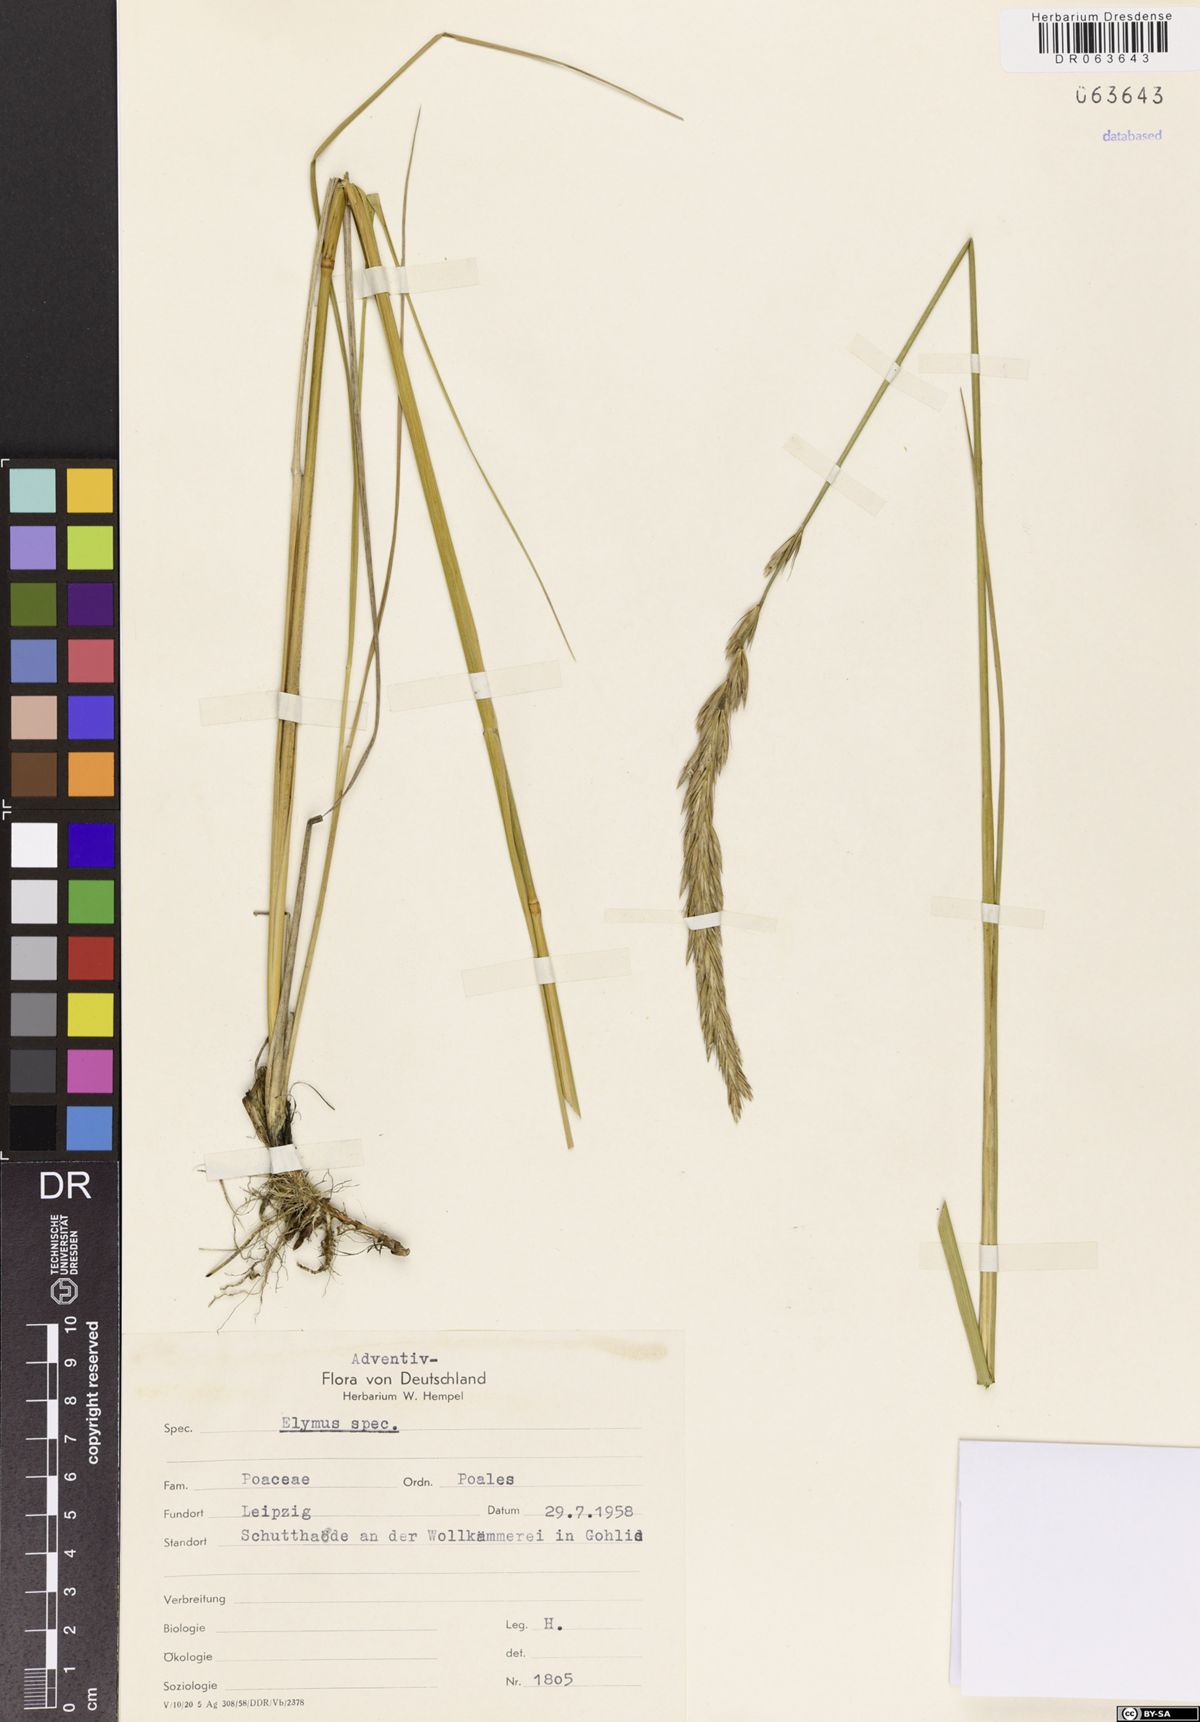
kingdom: Plantae
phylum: Tracheophyta
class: Liliopsida
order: Poales
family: Poaceae
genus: Elymus
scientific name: Elymus
